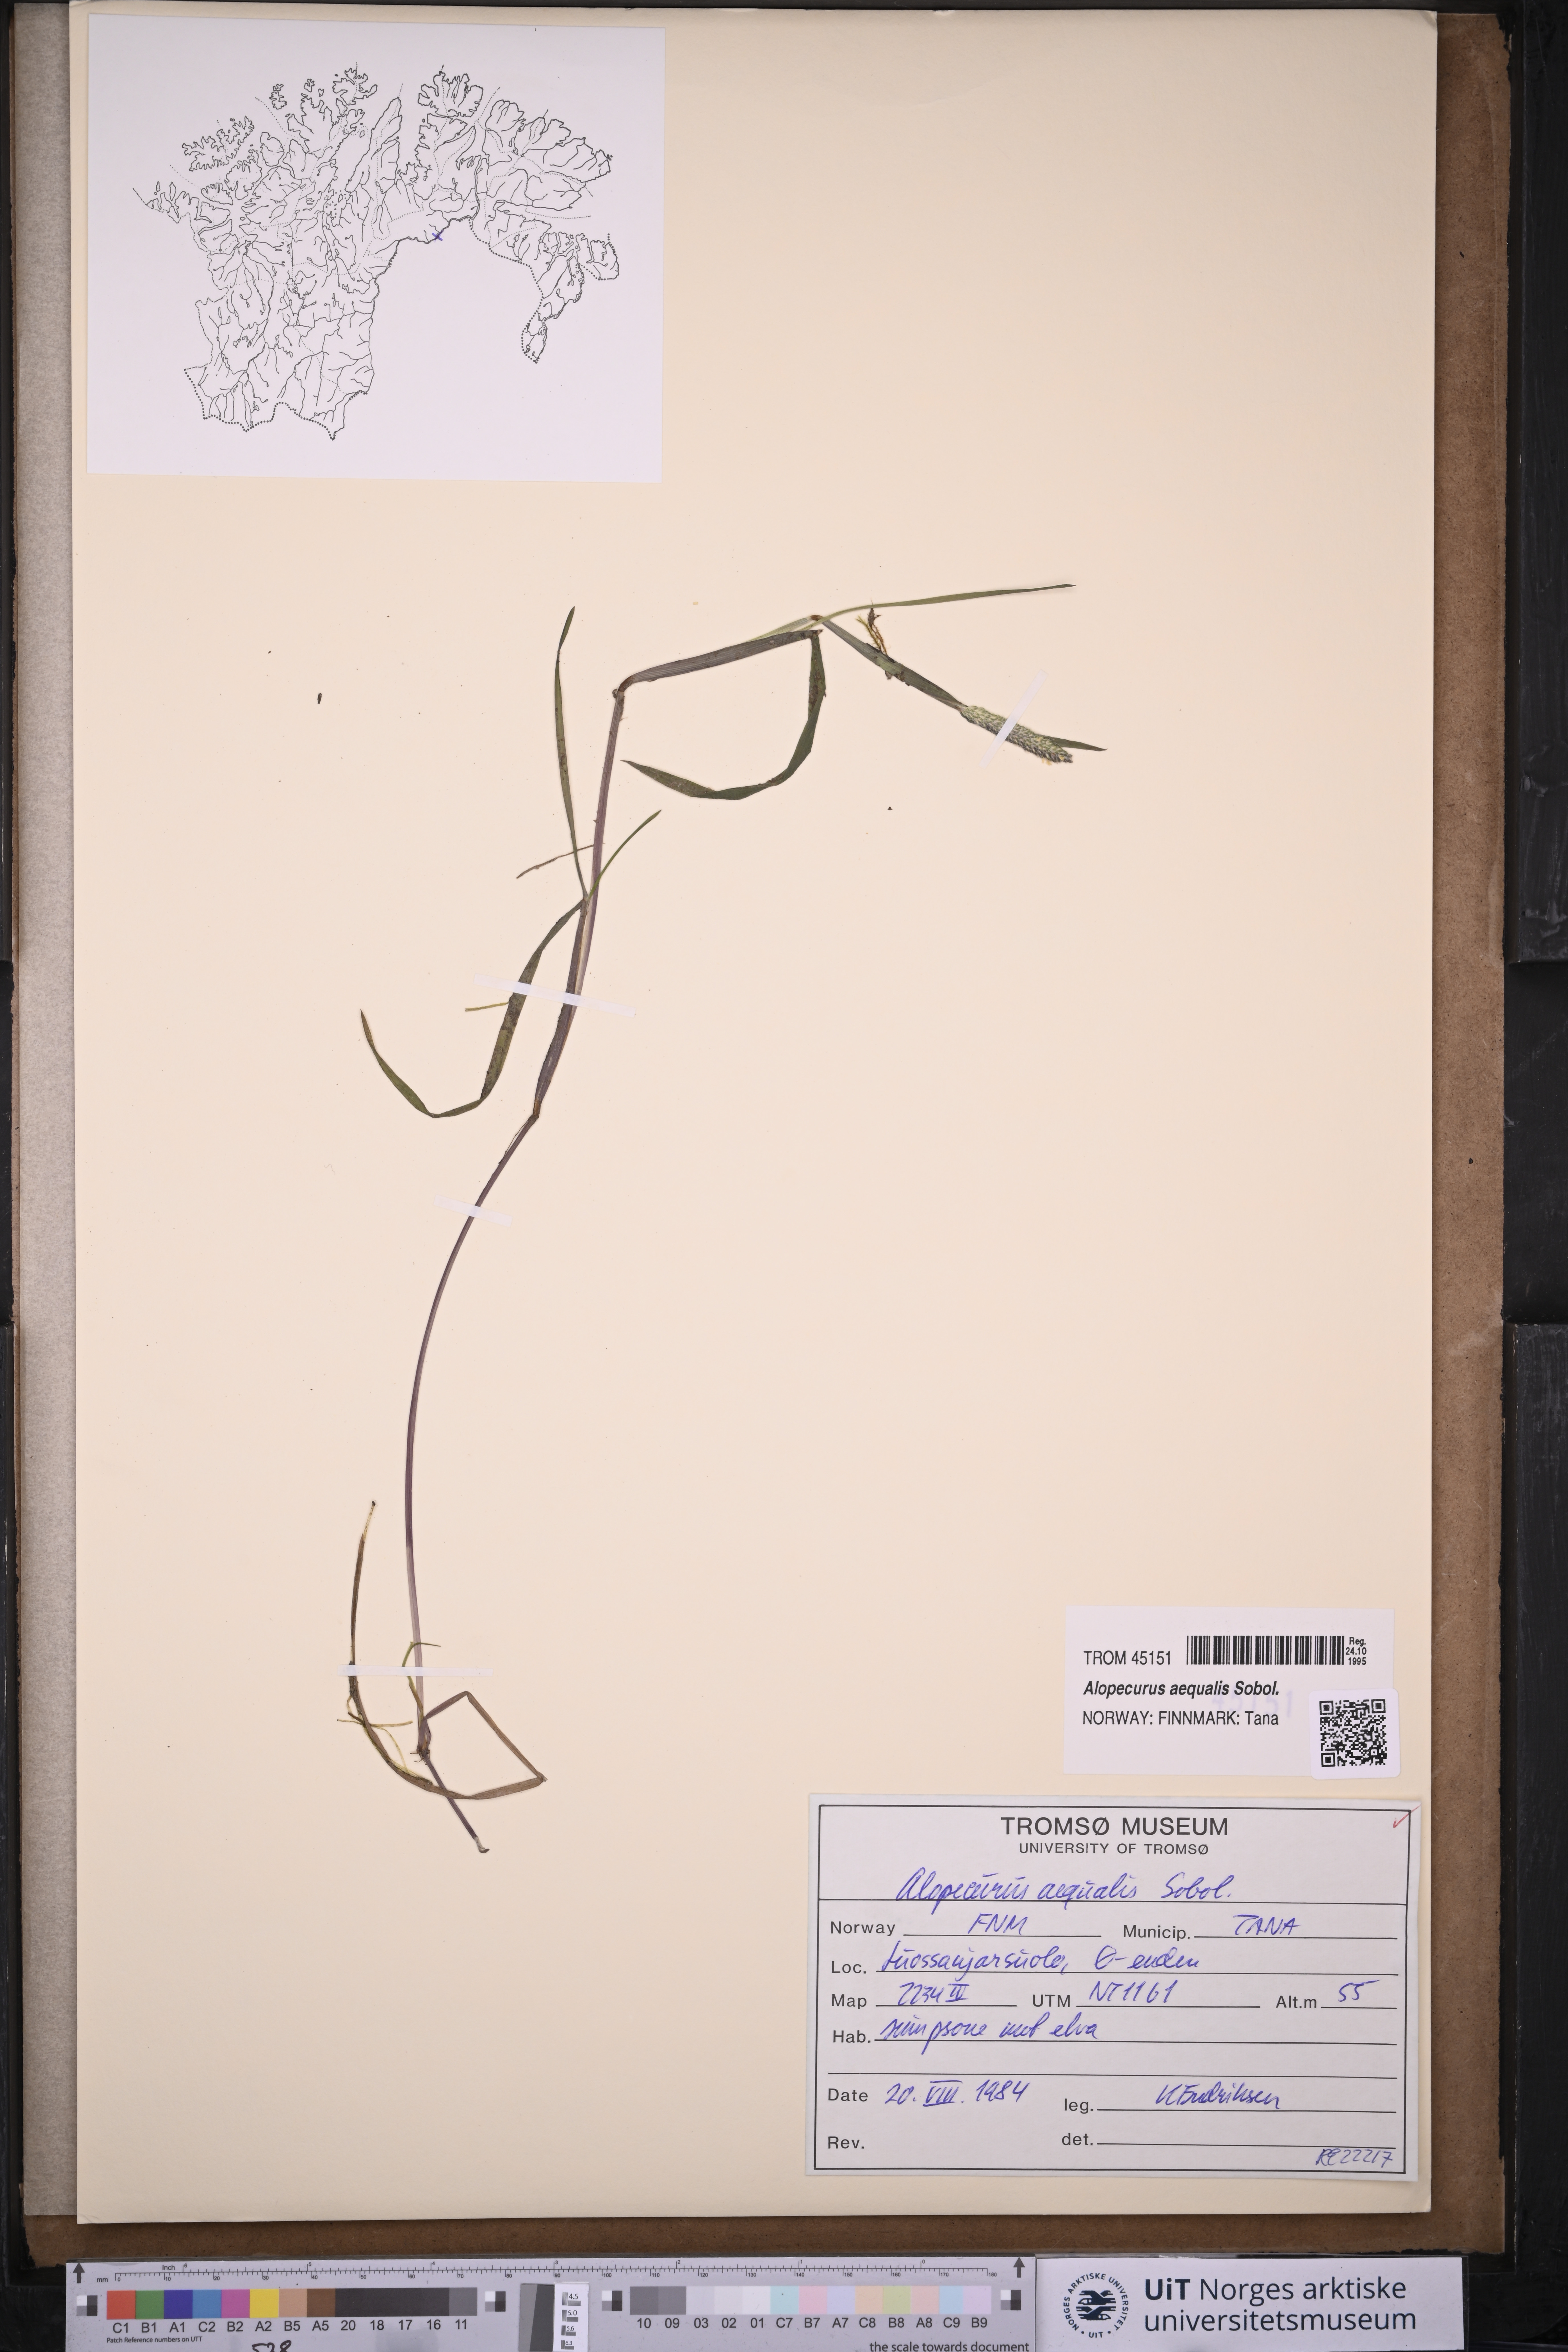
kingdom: Plantae
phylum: Tracheophyta
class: Liliopsida
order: Poales
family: Poaceae
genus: Alopecurus
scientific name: Alopecurus aequalis
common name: Orange foxtail
